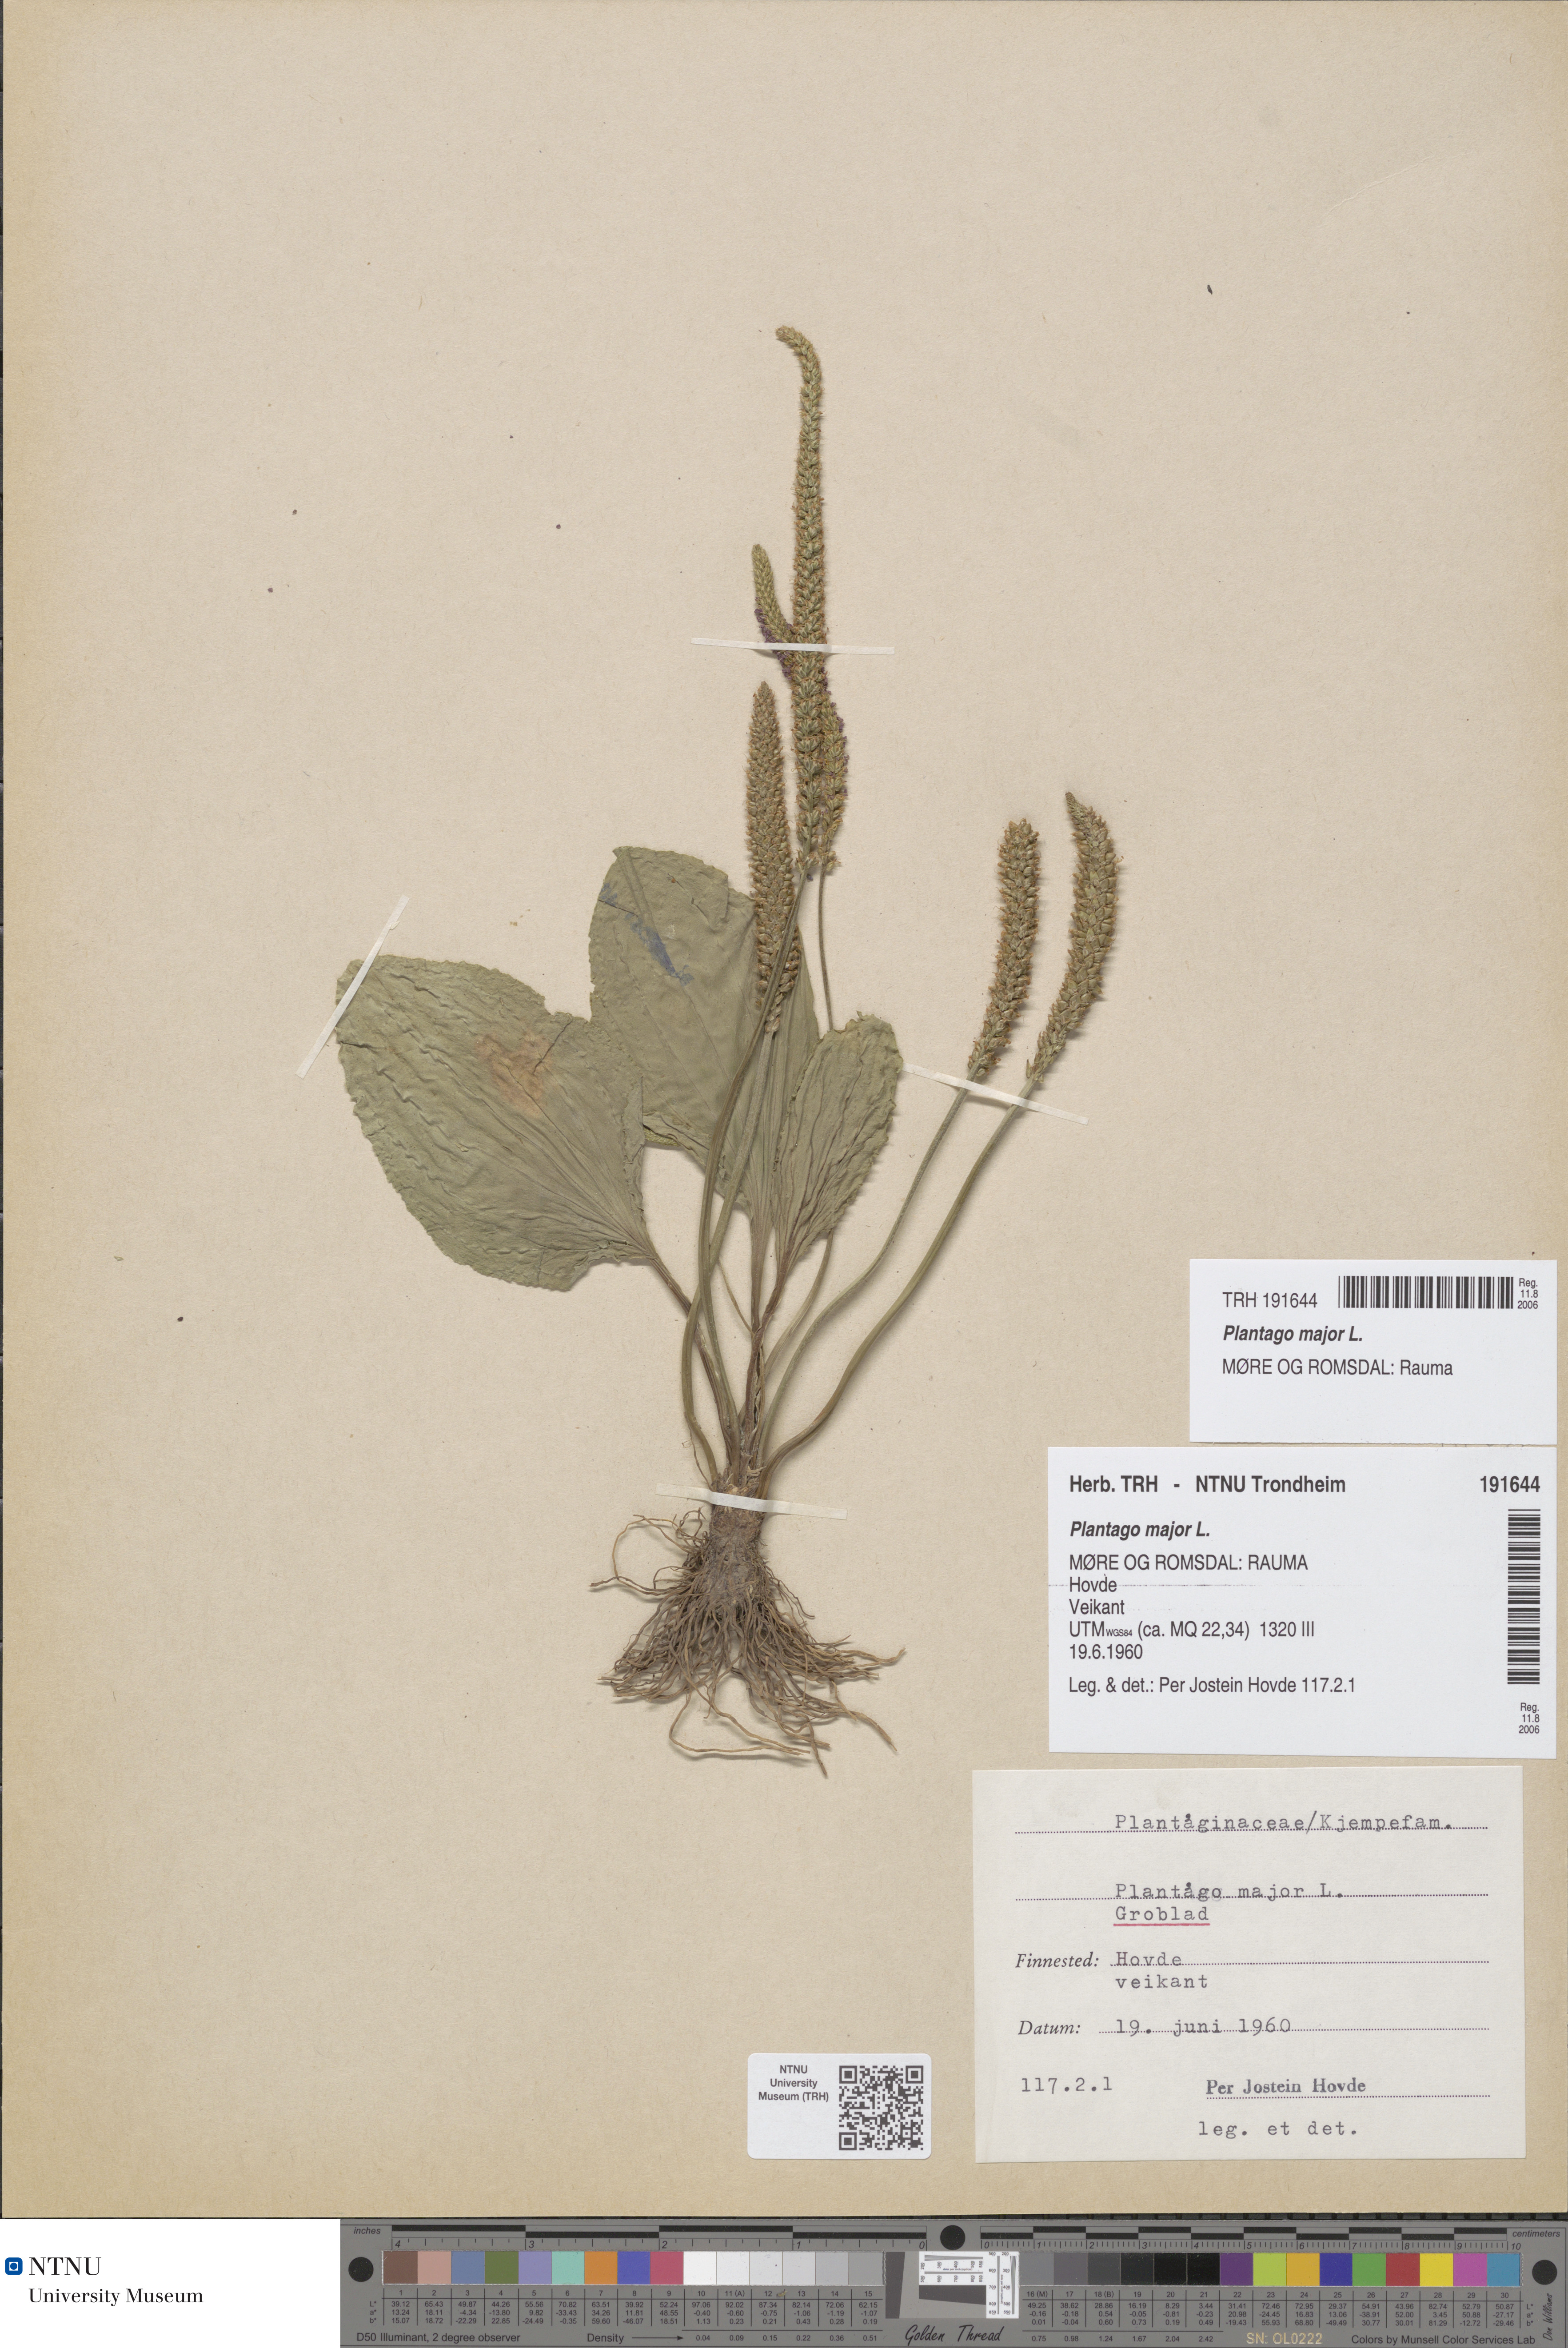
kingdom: Plantae
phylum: Tracheophyta
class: Magnoliopsida
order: Lamiales
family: Plantaginaceae
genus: Plantago
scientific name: Plantago major
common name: Common plantain
